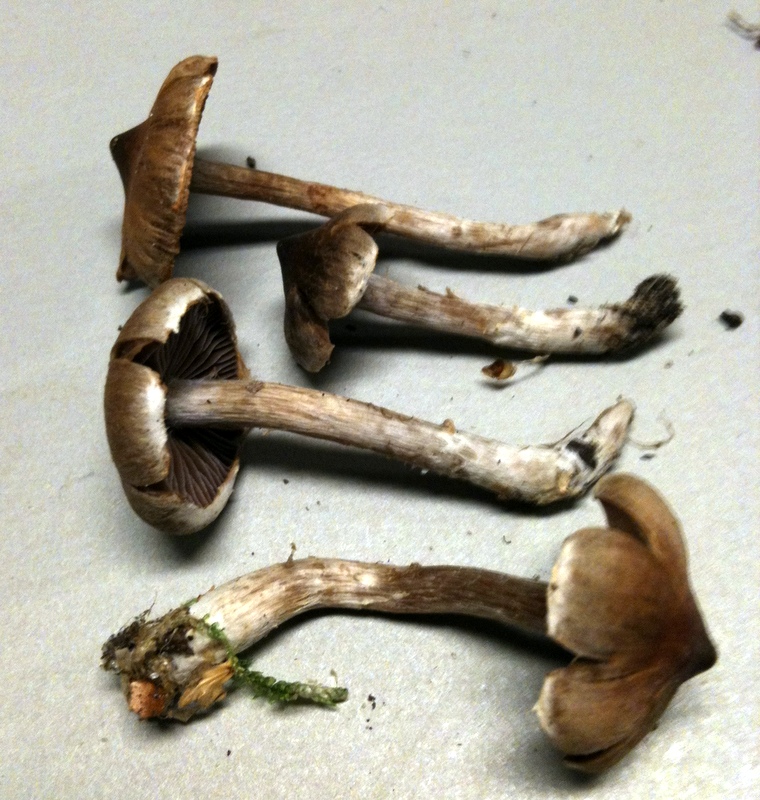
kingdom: Fungi
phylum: Basidiomycota
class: Agaricomycetes
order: Agaricales
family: Cortinariaceae
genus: Cortinarius
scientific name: Cortinarius
